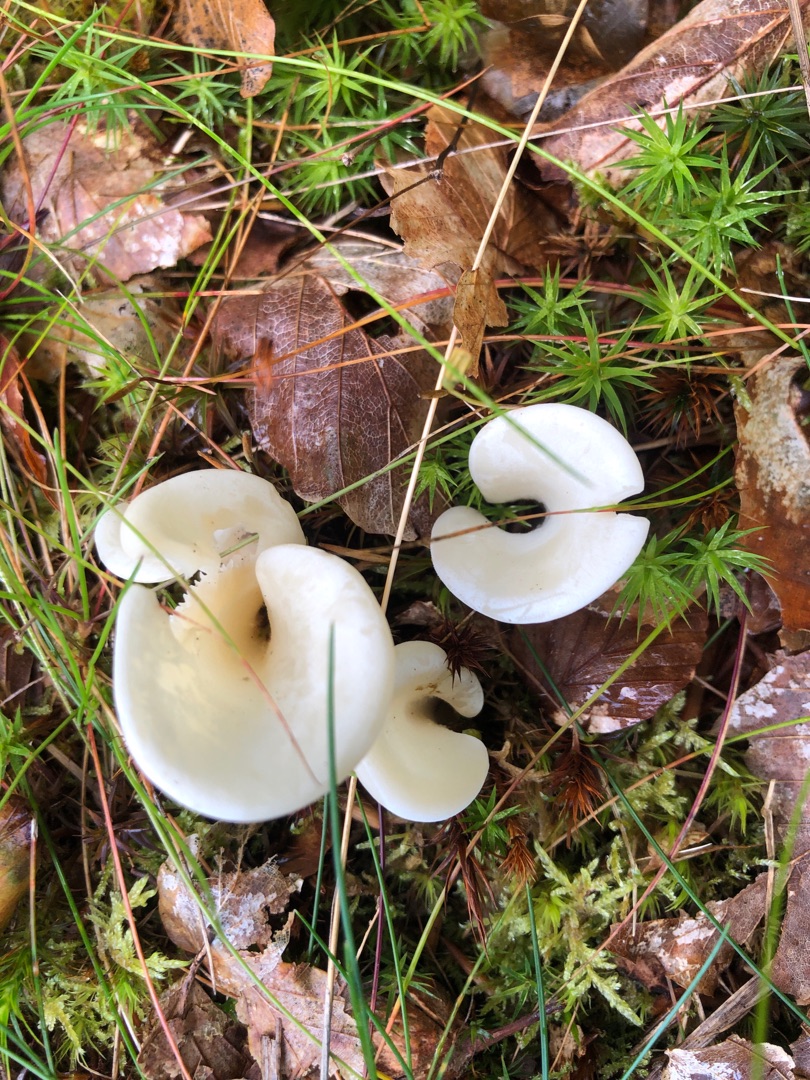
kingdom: Fungi
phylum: Basidiomycota
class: Agaricomycetes
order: Agaricales
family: Marasmiaceae
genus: Pleurocybella
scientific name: Pleurocybella porrigens
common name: Kridthat
